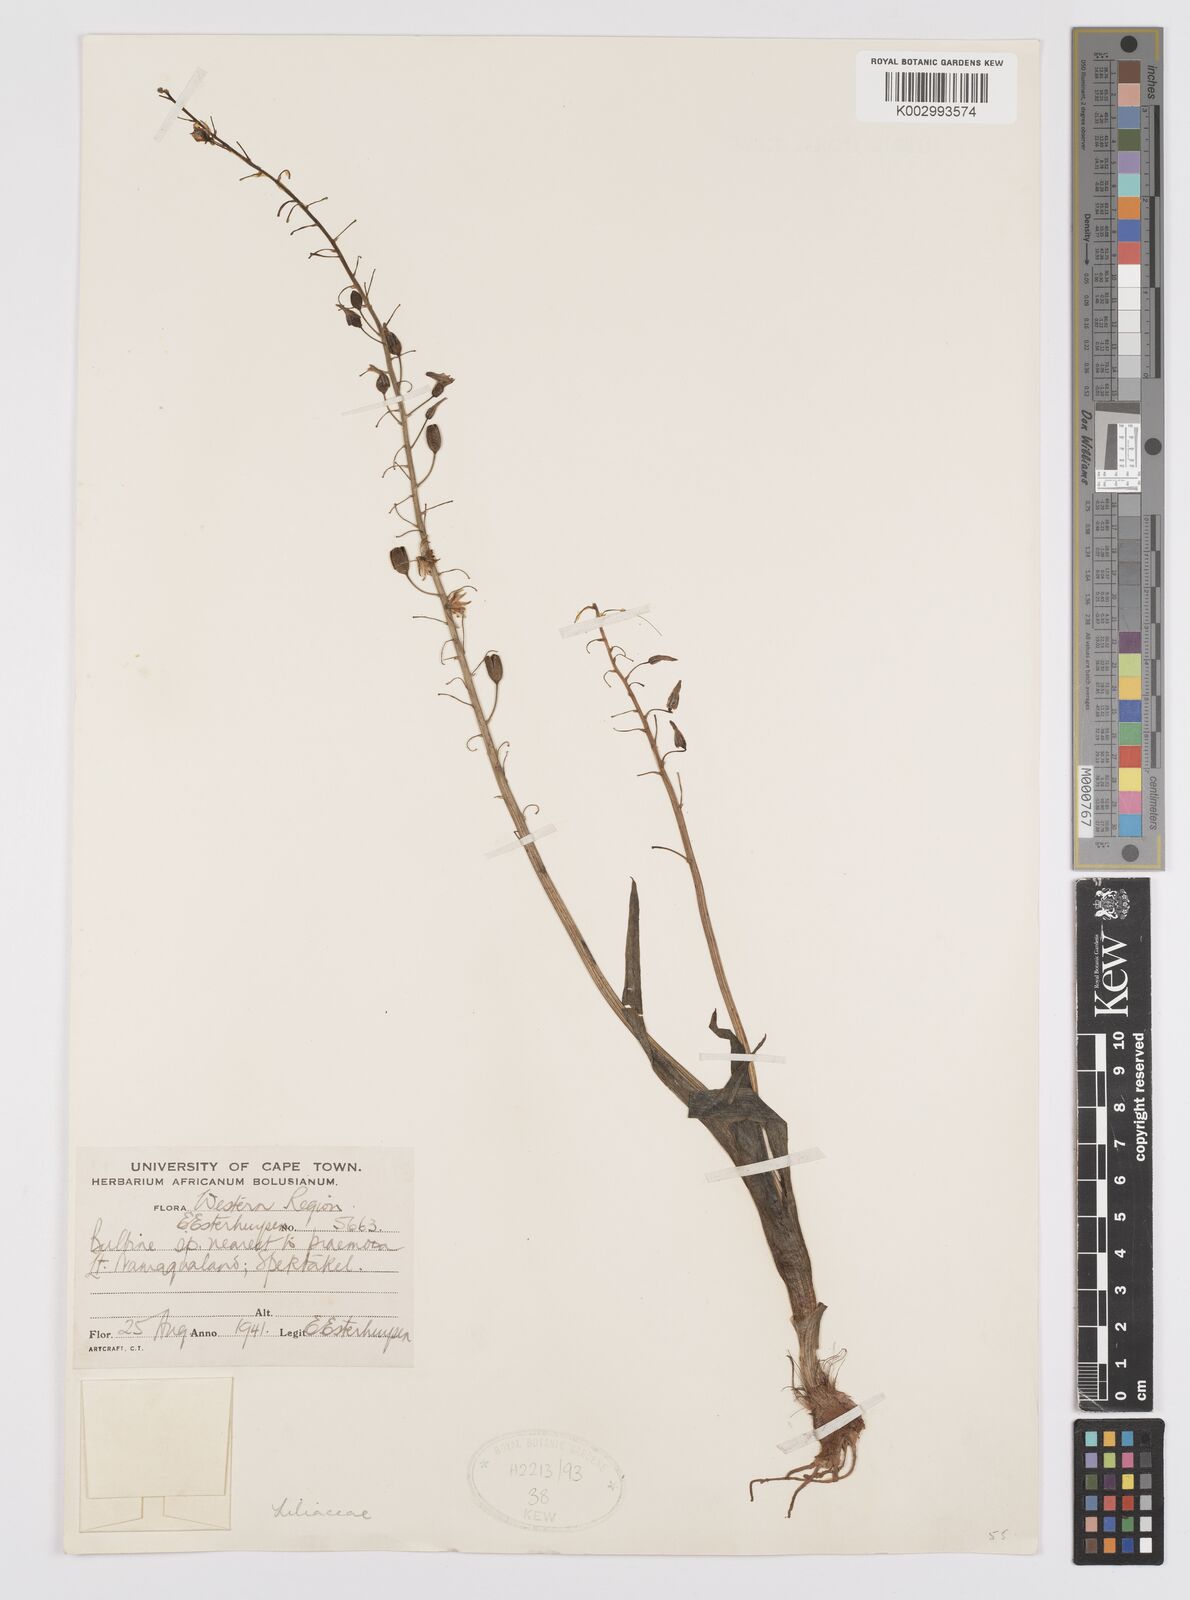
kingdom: Plantae
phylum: Tracheophyta
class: Liliopsida
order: Asparagales
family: Asphodelaceae
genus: Bulbine
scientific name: Bulbine praemorsa
